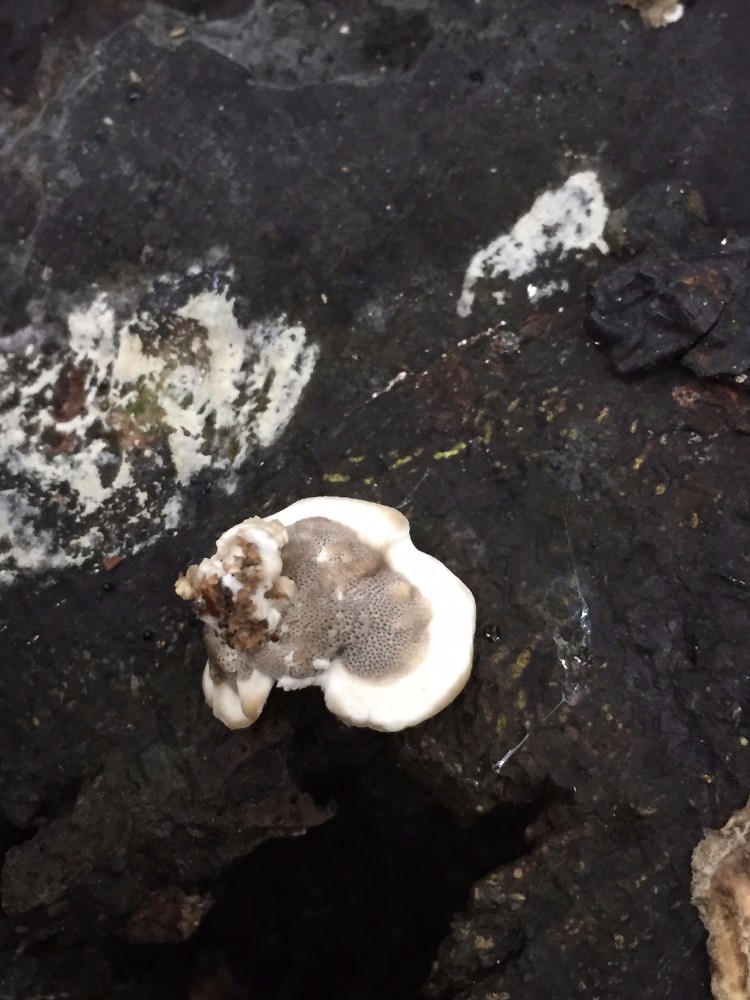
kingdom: Fungi
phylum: Basidiomycota
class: Agaricomycetes
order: Polyporales
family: Phanerochaetaceae
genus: Bjerkandera
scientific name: Bjerkandera adusta
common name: sveden sodporesvamp
